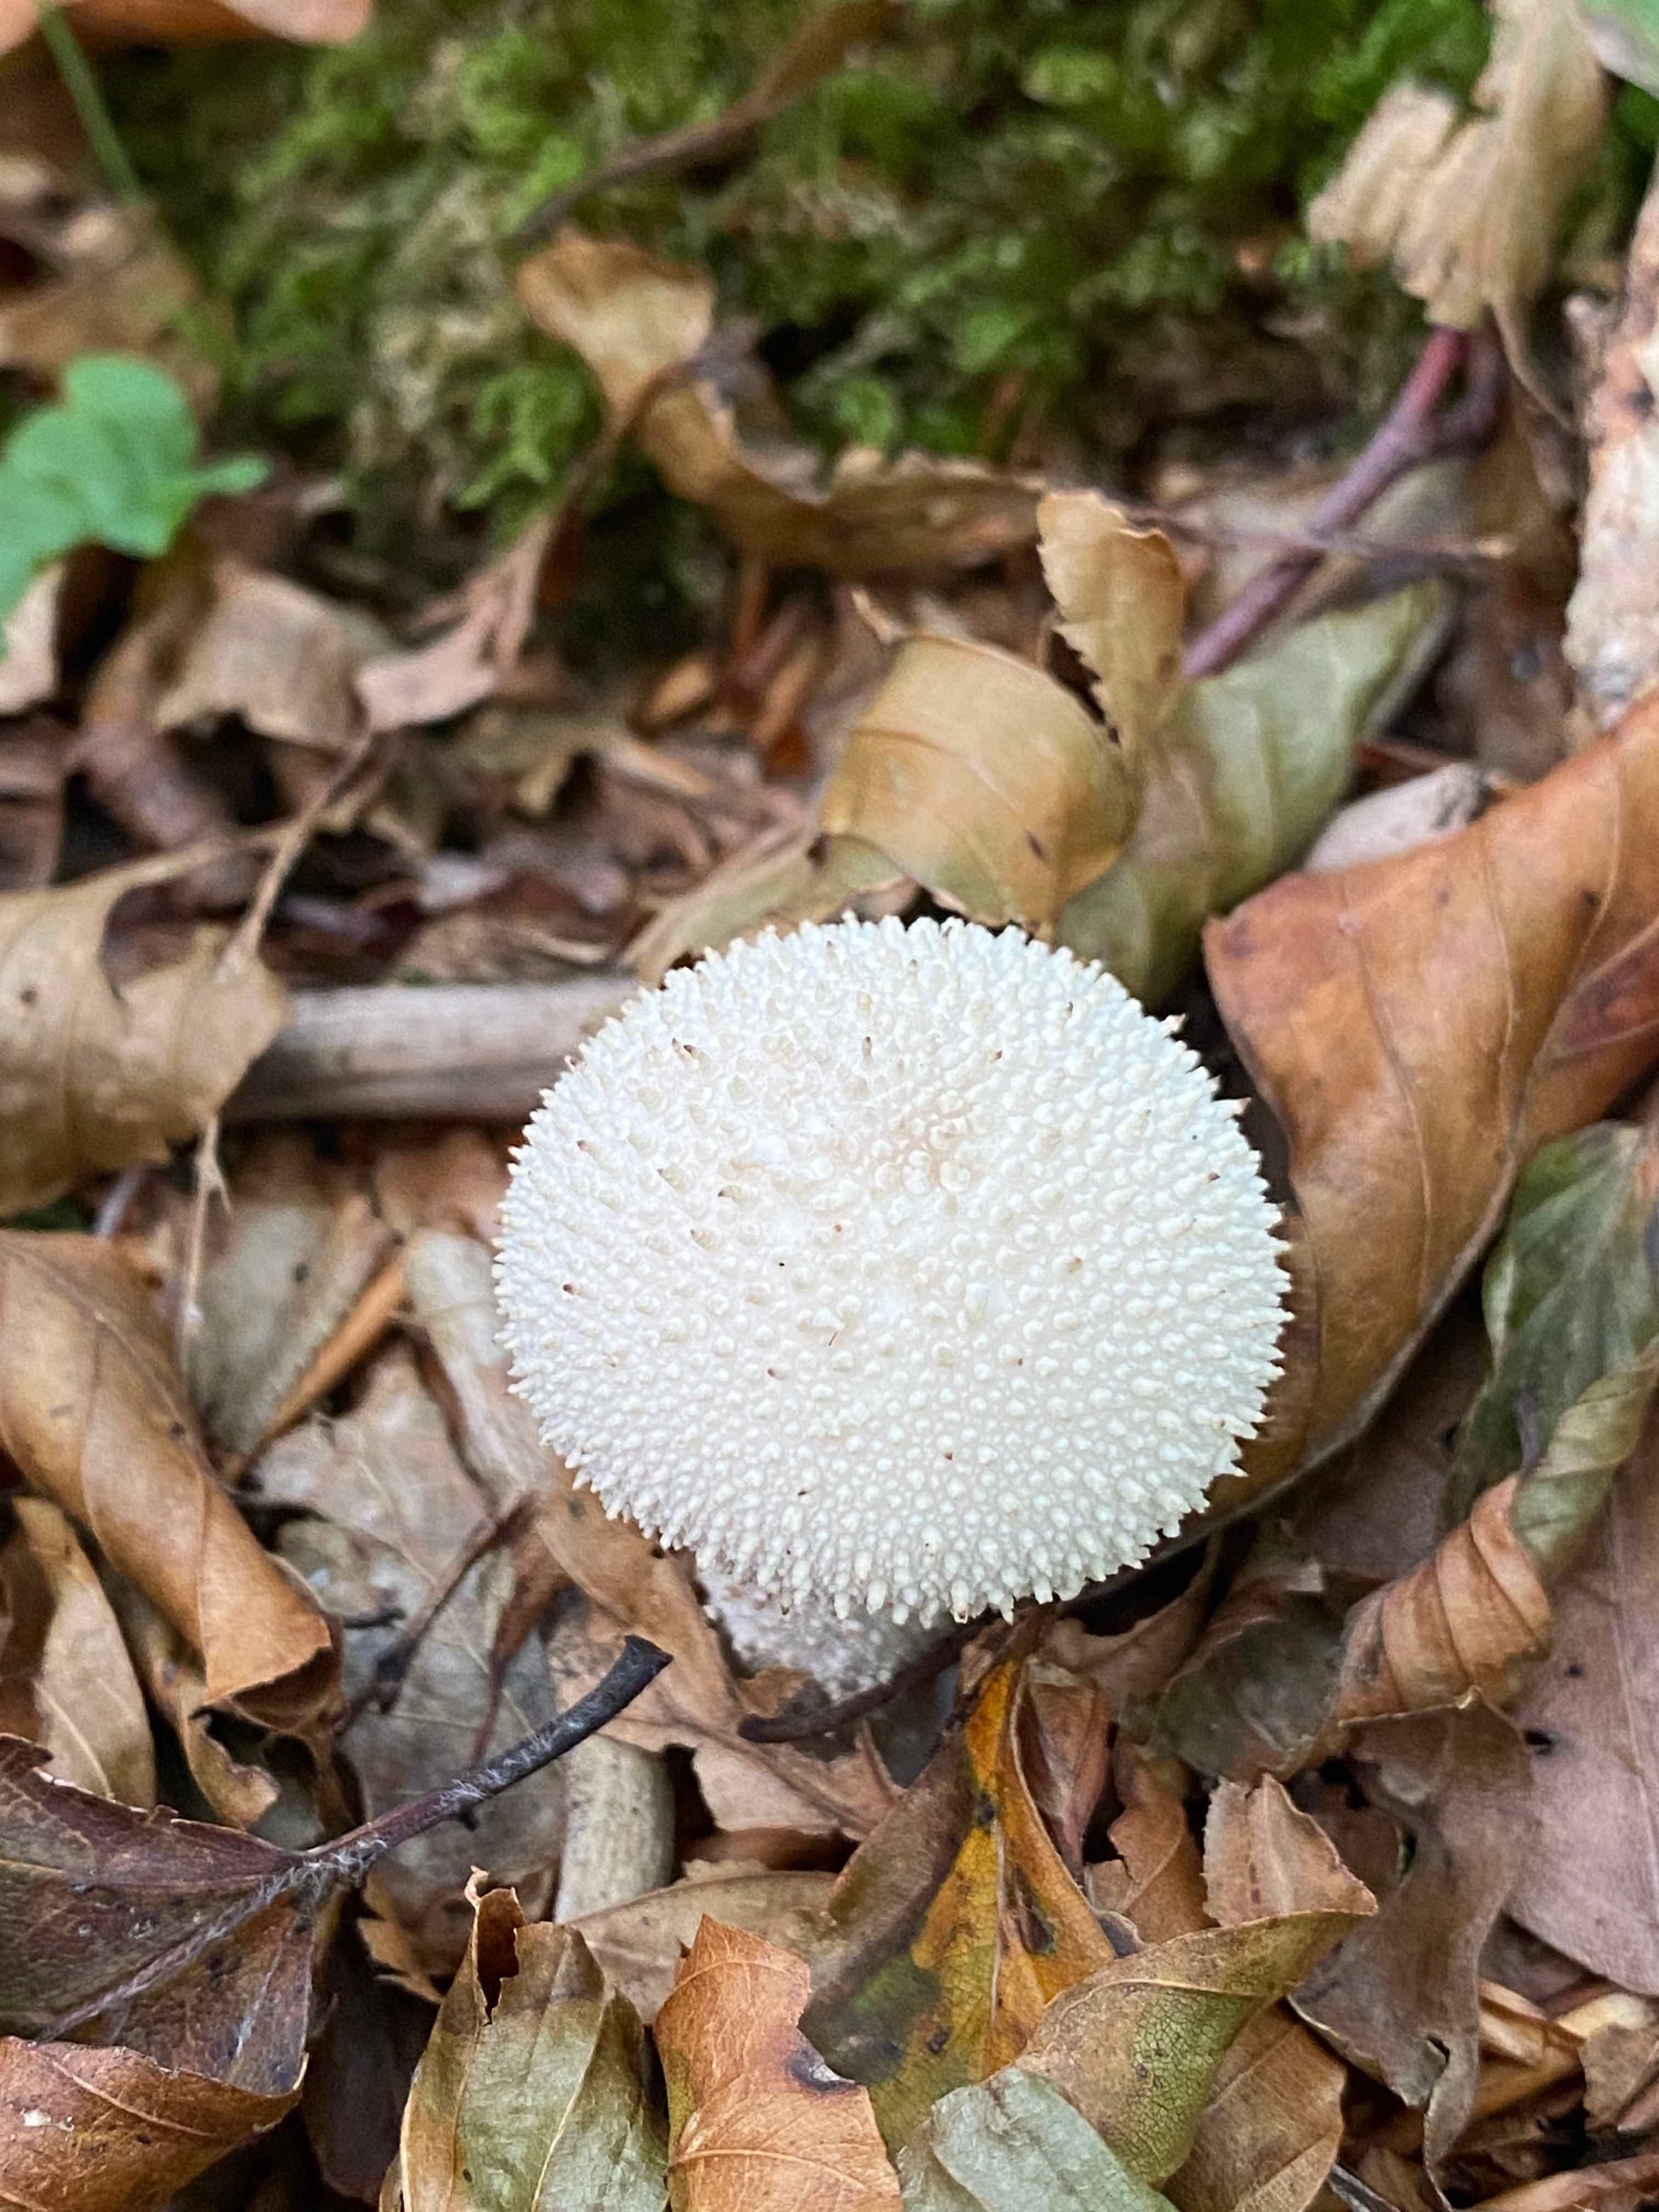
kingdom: Fungi
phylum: Basidiomycota
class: Agaricomycetes
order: Agaricales
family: Lycoperdaceae
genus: Lycoperdon
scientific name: Lycoperdon perlatum
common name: krystal-støvbold
